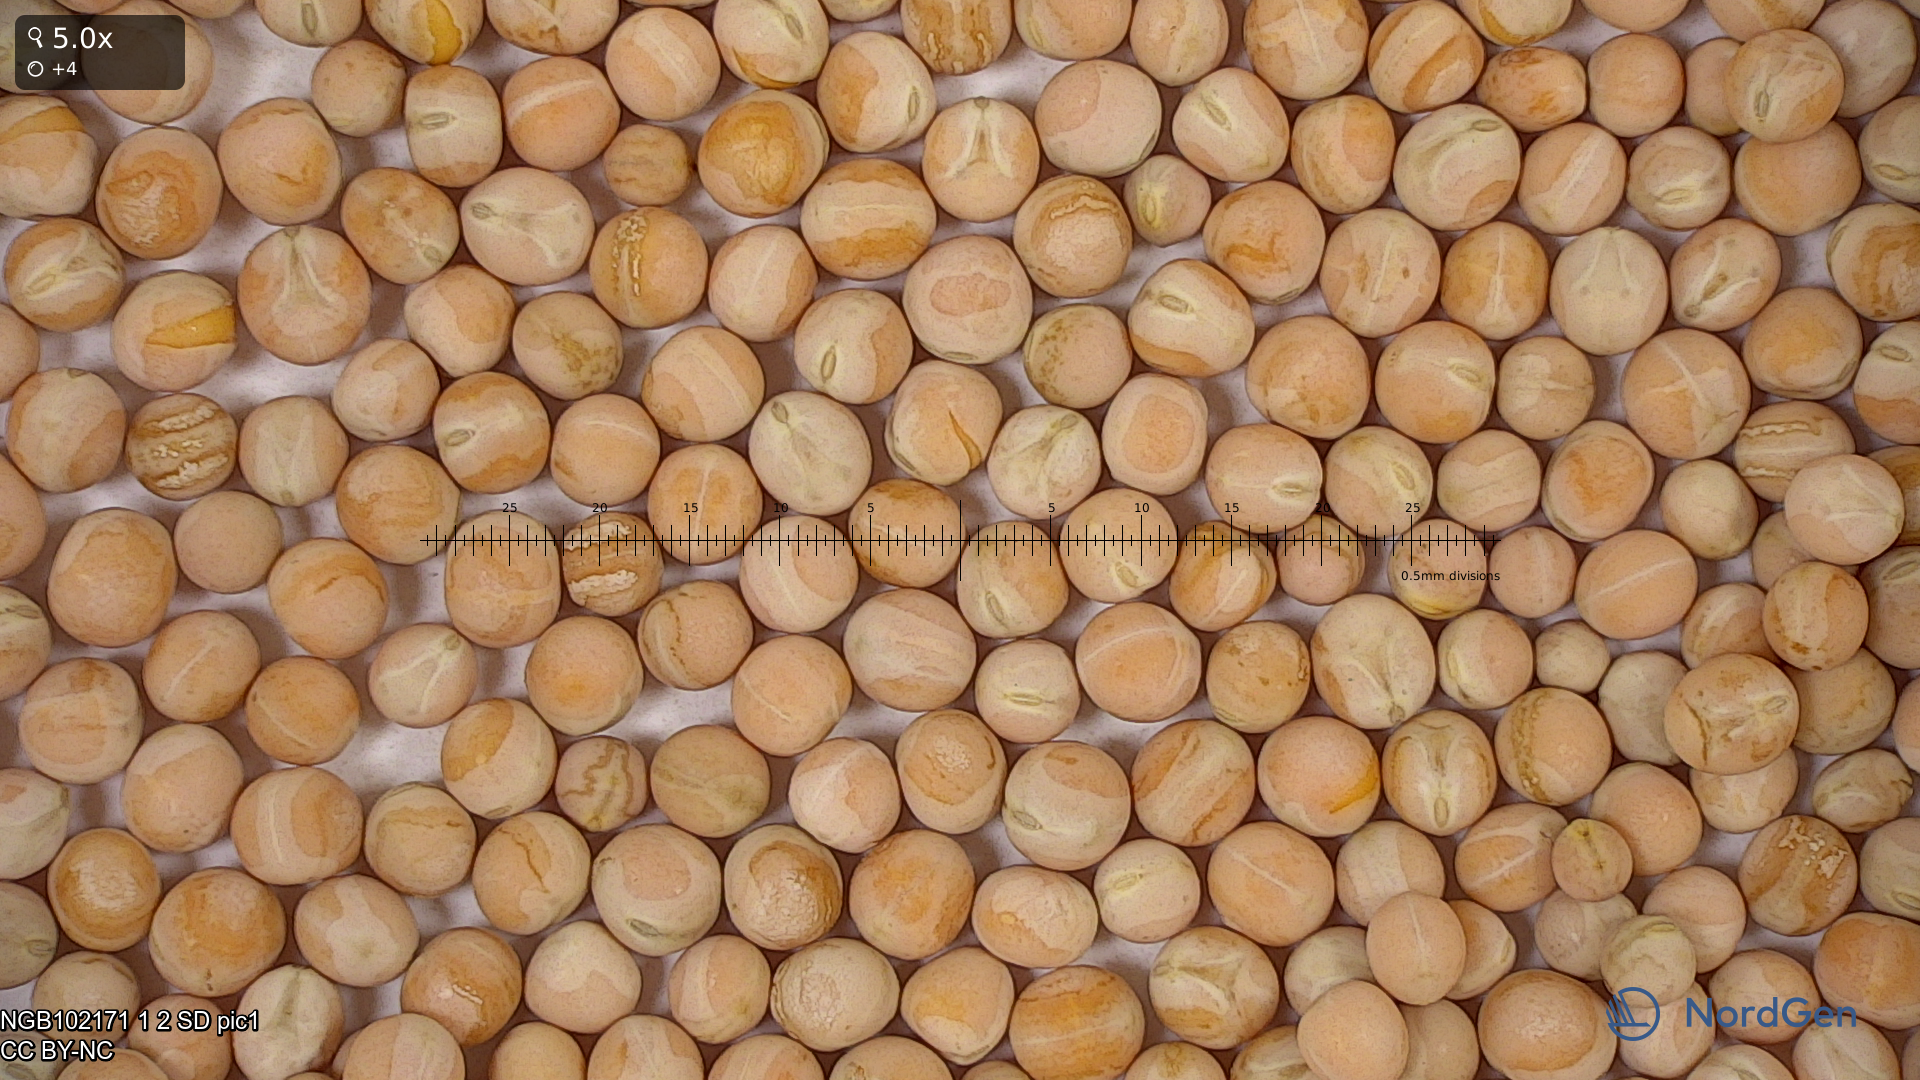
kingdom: Plantae
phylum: Tracheophyta
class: Magnoliopsida
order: Fabales
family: Fabaceae
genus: Lathyrus
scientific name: Lathyrus oleraceus
